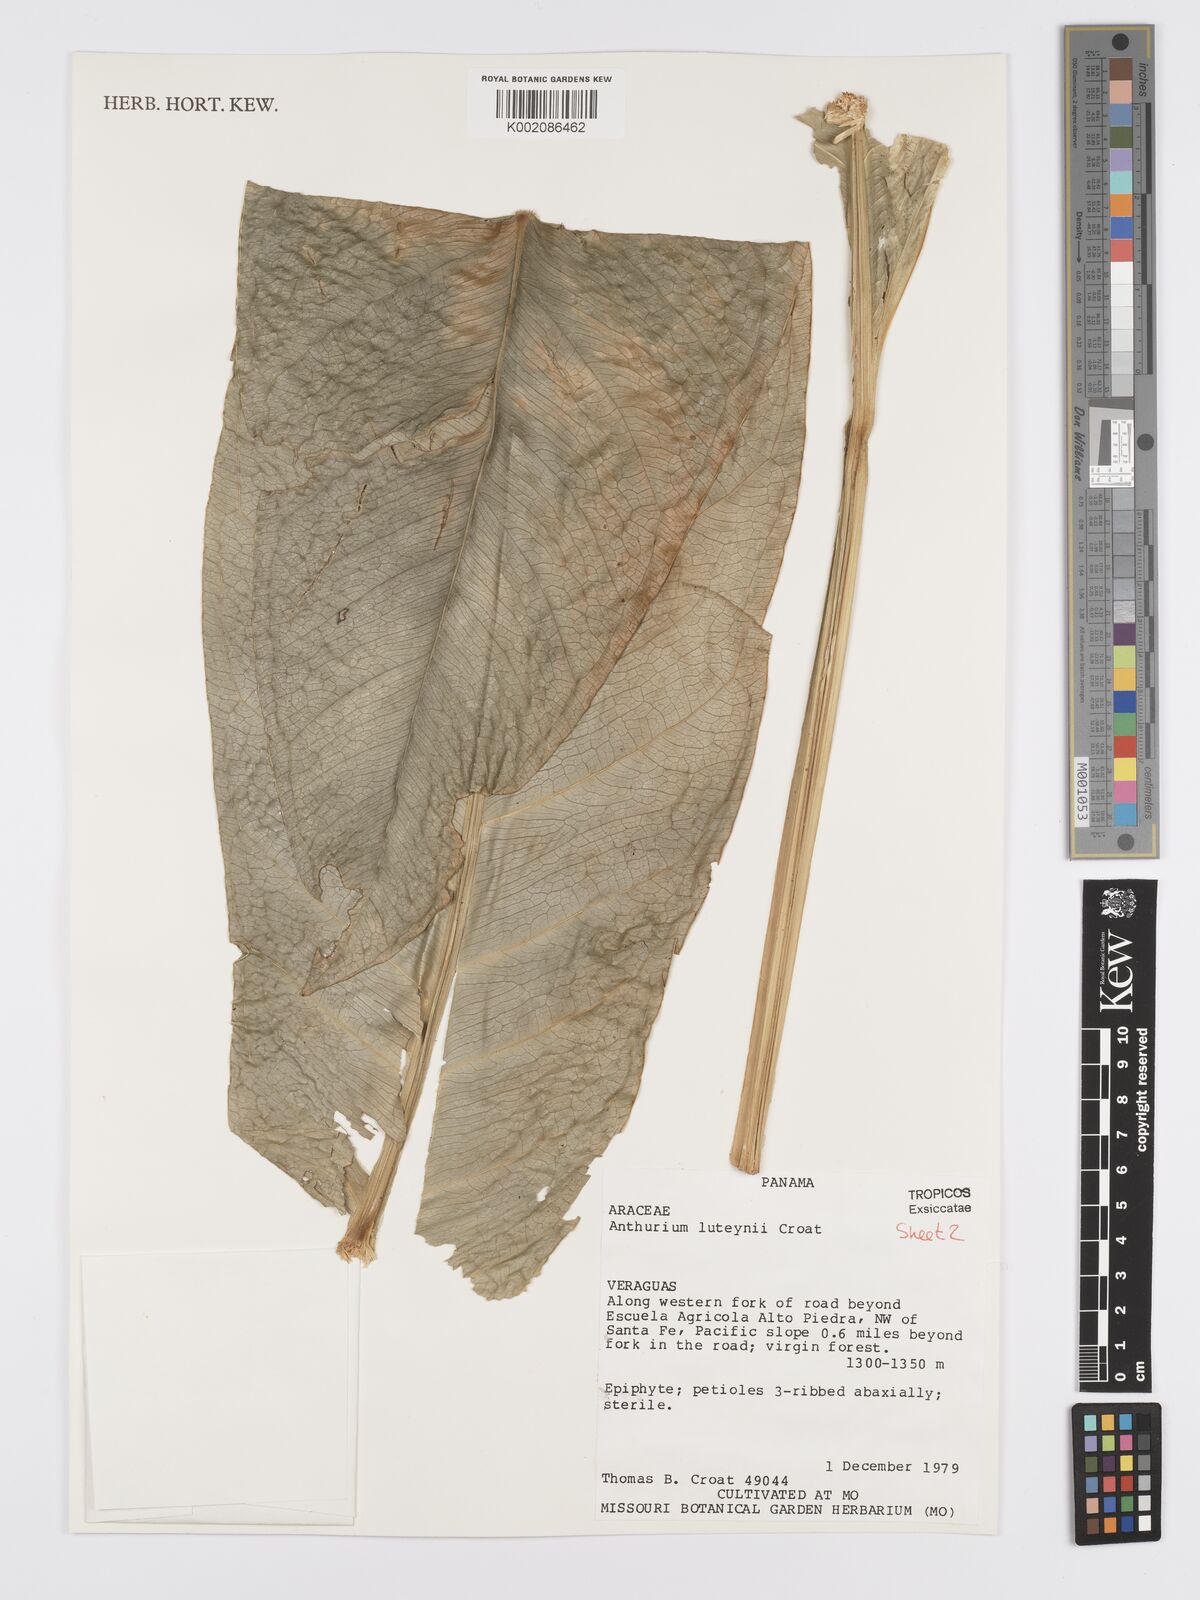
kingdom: Plantae
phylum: Tracheophyta
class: Liliopsida
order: Alismatales
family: Araceae
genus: Anthurium
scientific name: Anthurium luteynii
